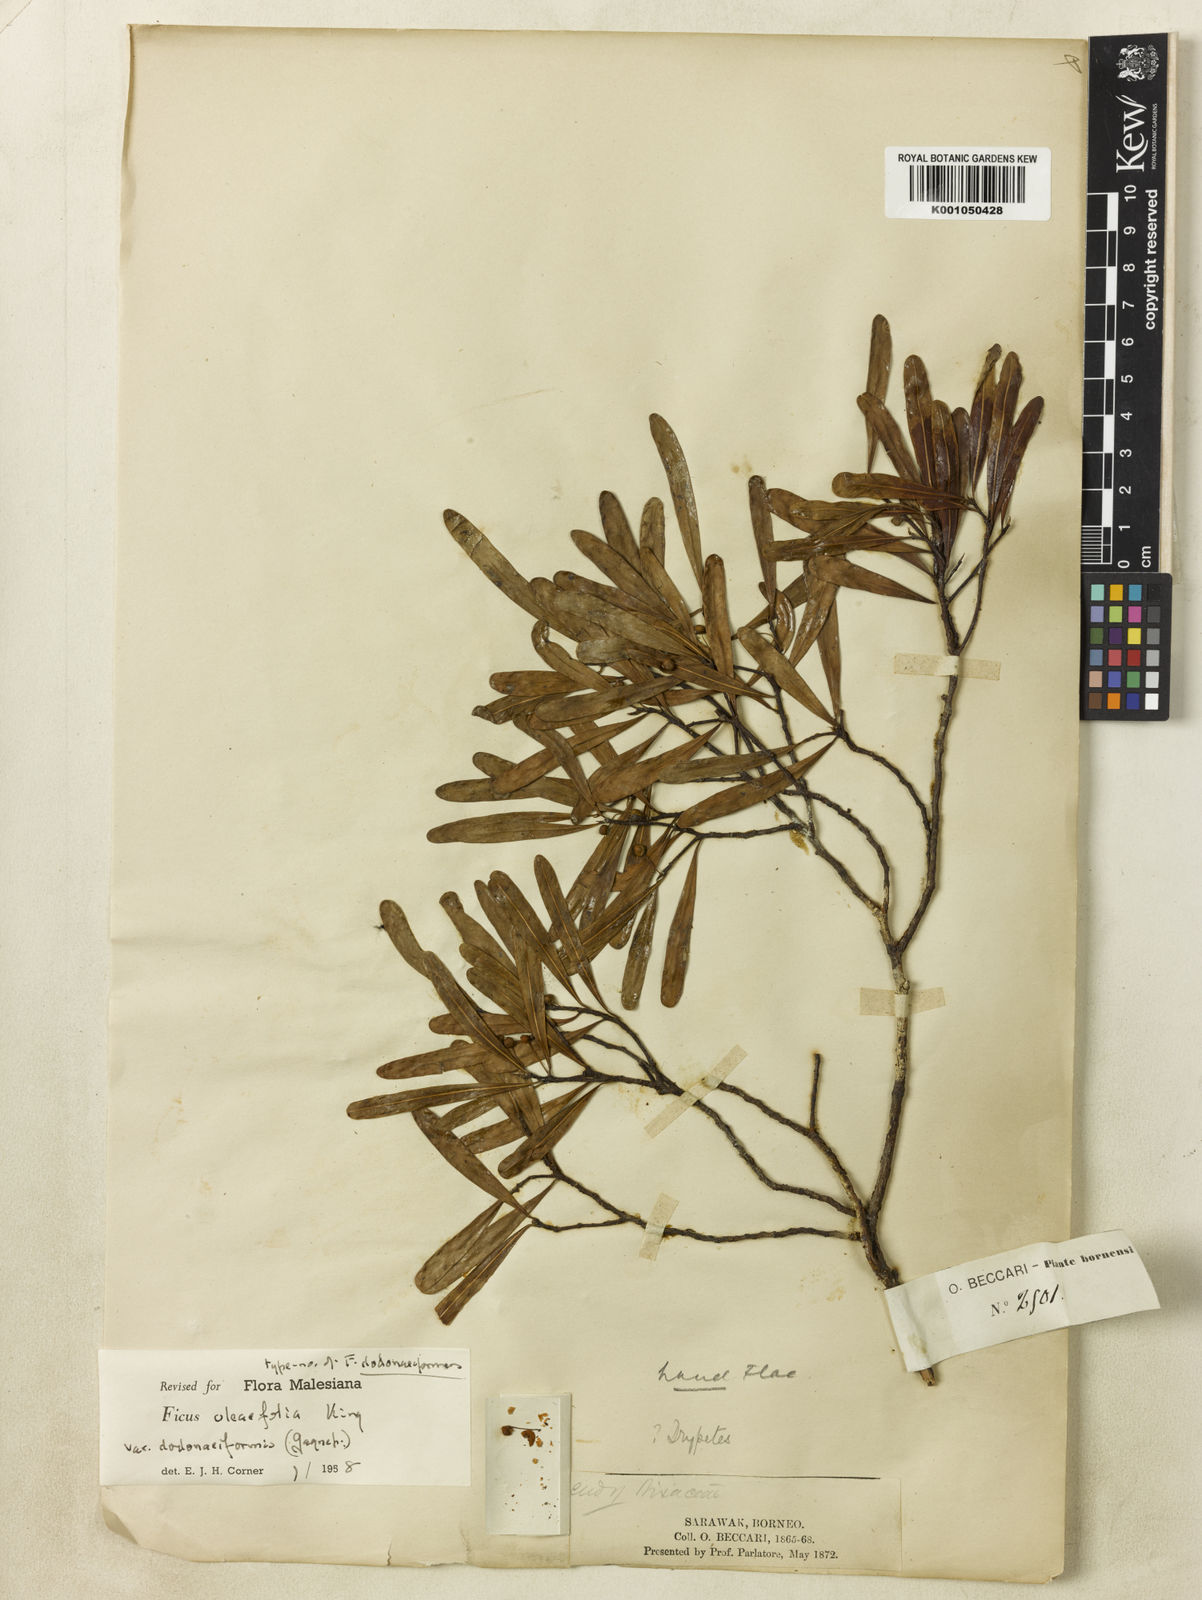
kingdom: Plantae
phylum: Tracheophyta
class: Magnoliopsida
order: Rosales
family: Moraceae
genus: Ficus
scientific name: Ficus oleifolia
